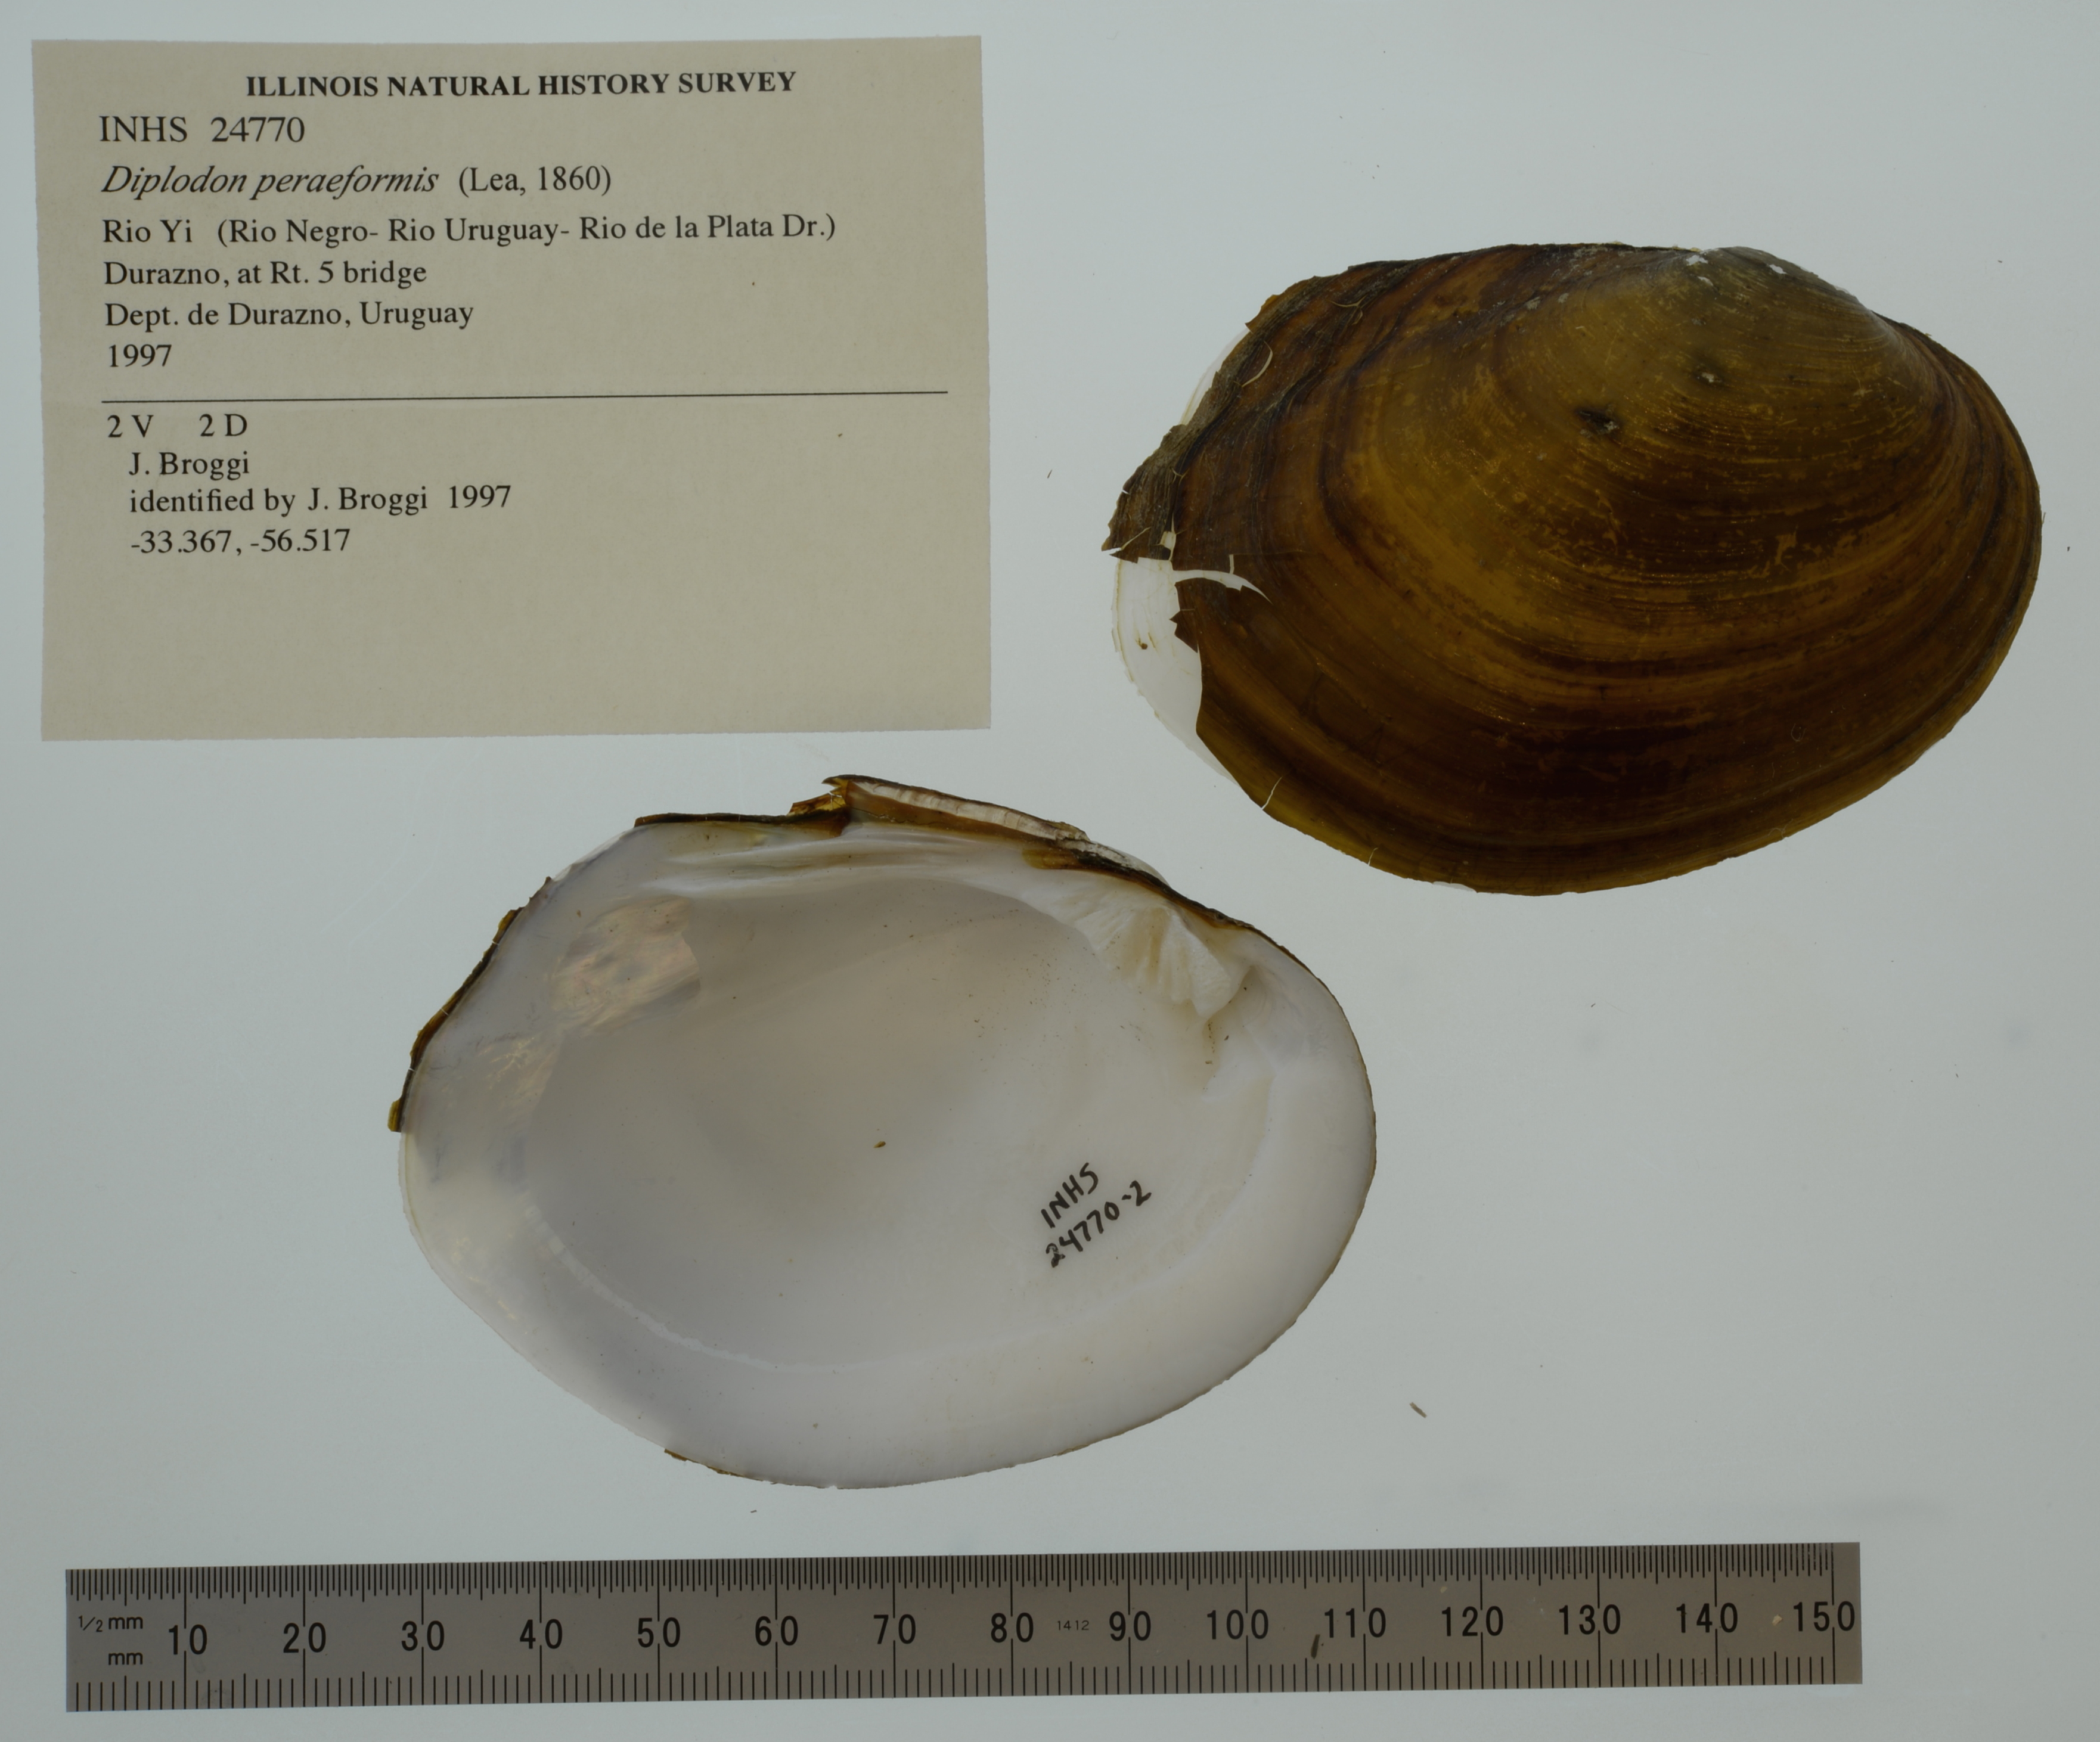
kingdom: Animalia
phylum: Mollusca
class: Bivalvia
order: Unionida
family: Hyriidae
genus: Rhipidodonta
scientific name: Rhipidodonta peraeformis
